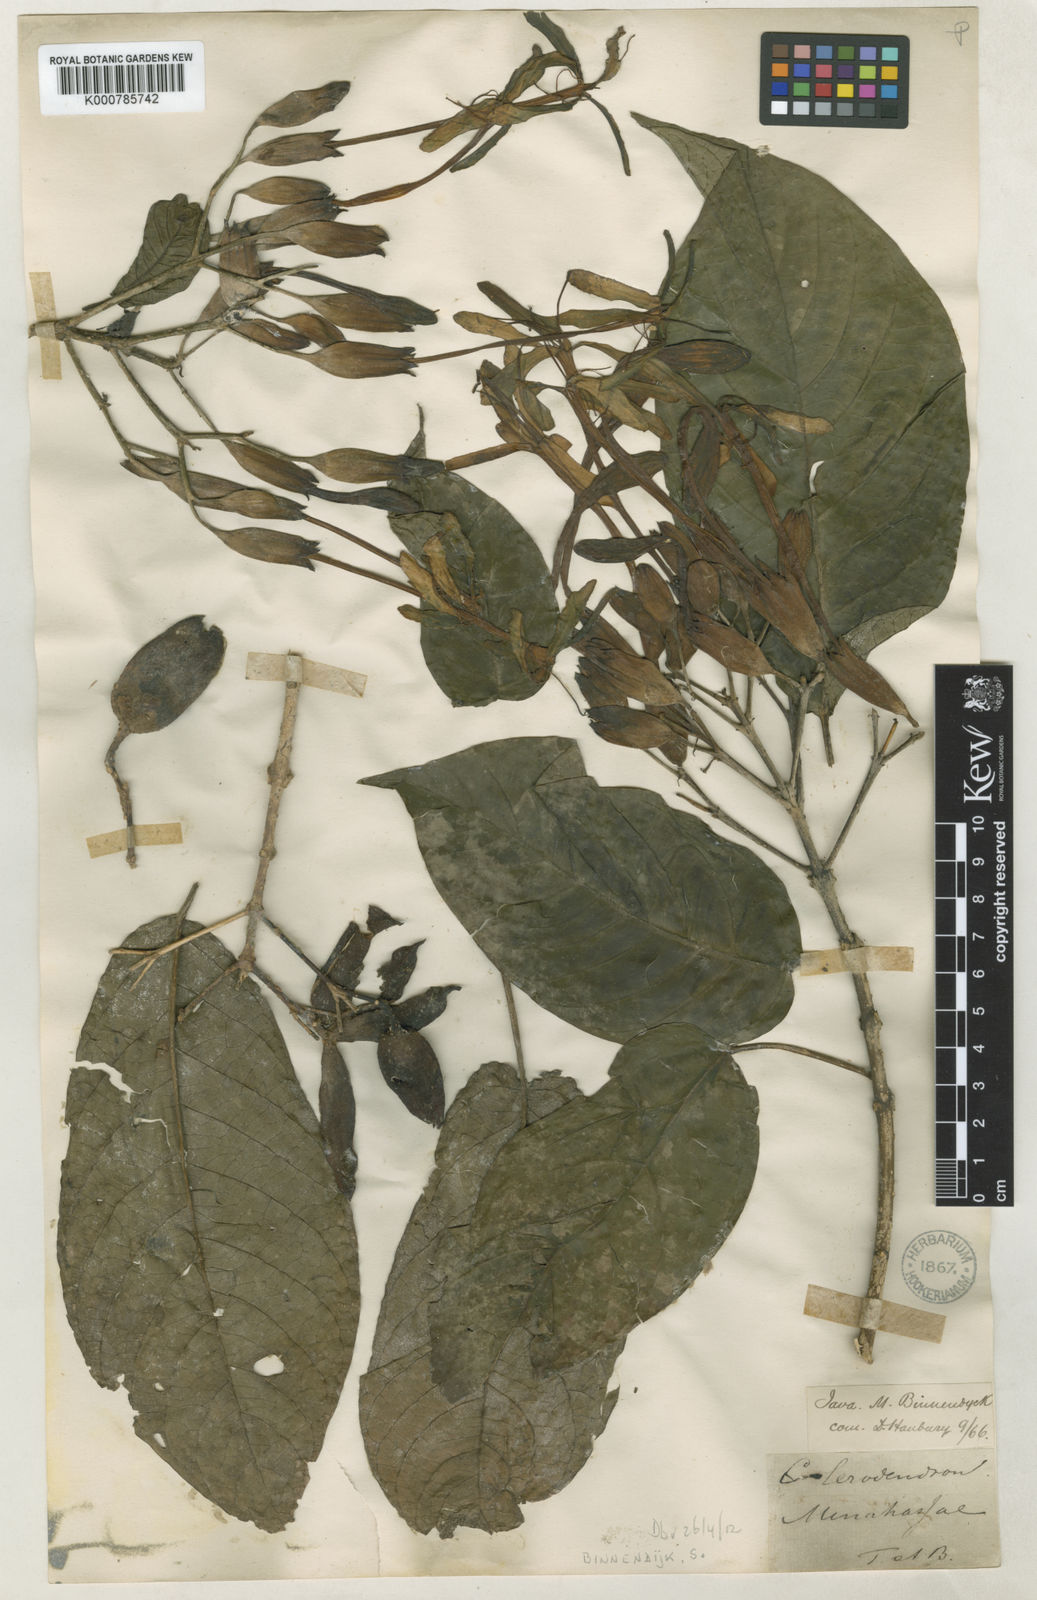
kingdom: Plantae
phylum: Tracheophyta
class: Magnoliopsida
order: Lamiales
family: Lamiaceae
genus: Clerodendrum
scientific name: Clerodendrum
